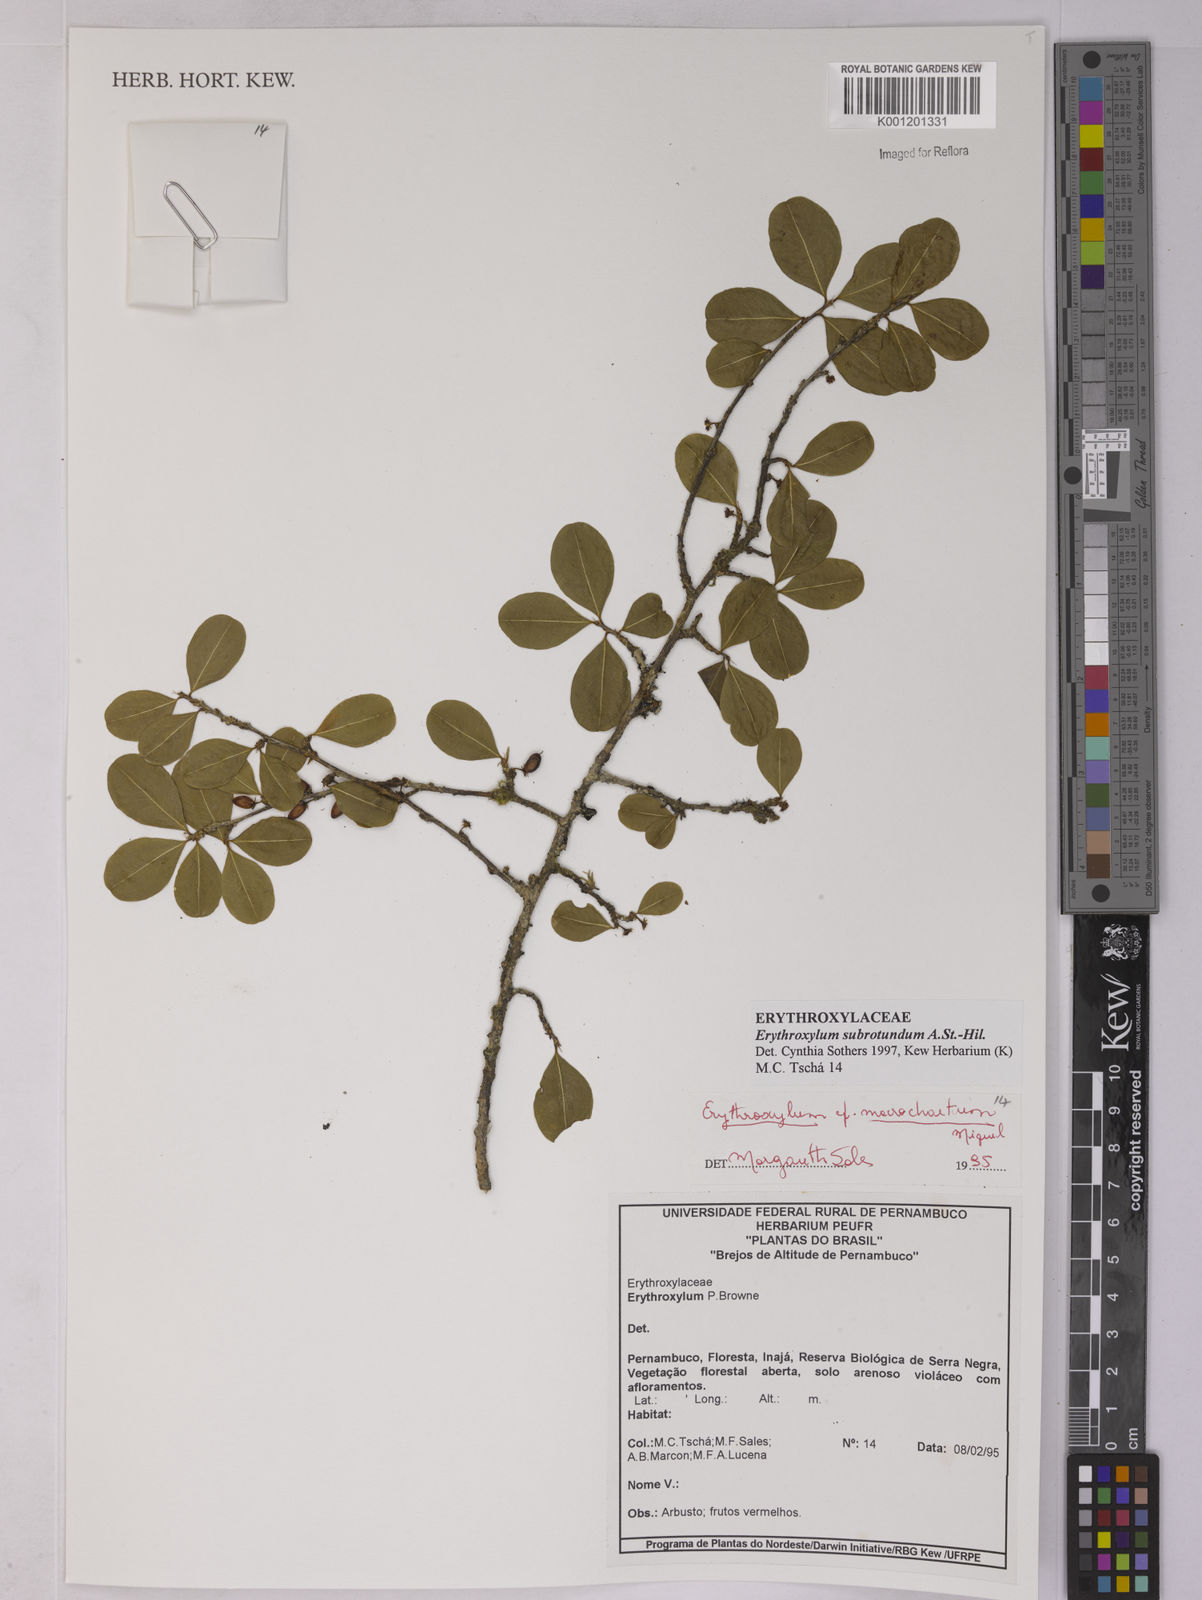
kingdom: Plantae
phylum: Tracheophyta
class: Magnoliopsida
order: Malpighiales
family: Erythroxylaceae
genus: Erythroxylum
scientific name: Erythroxylum subrotundum
